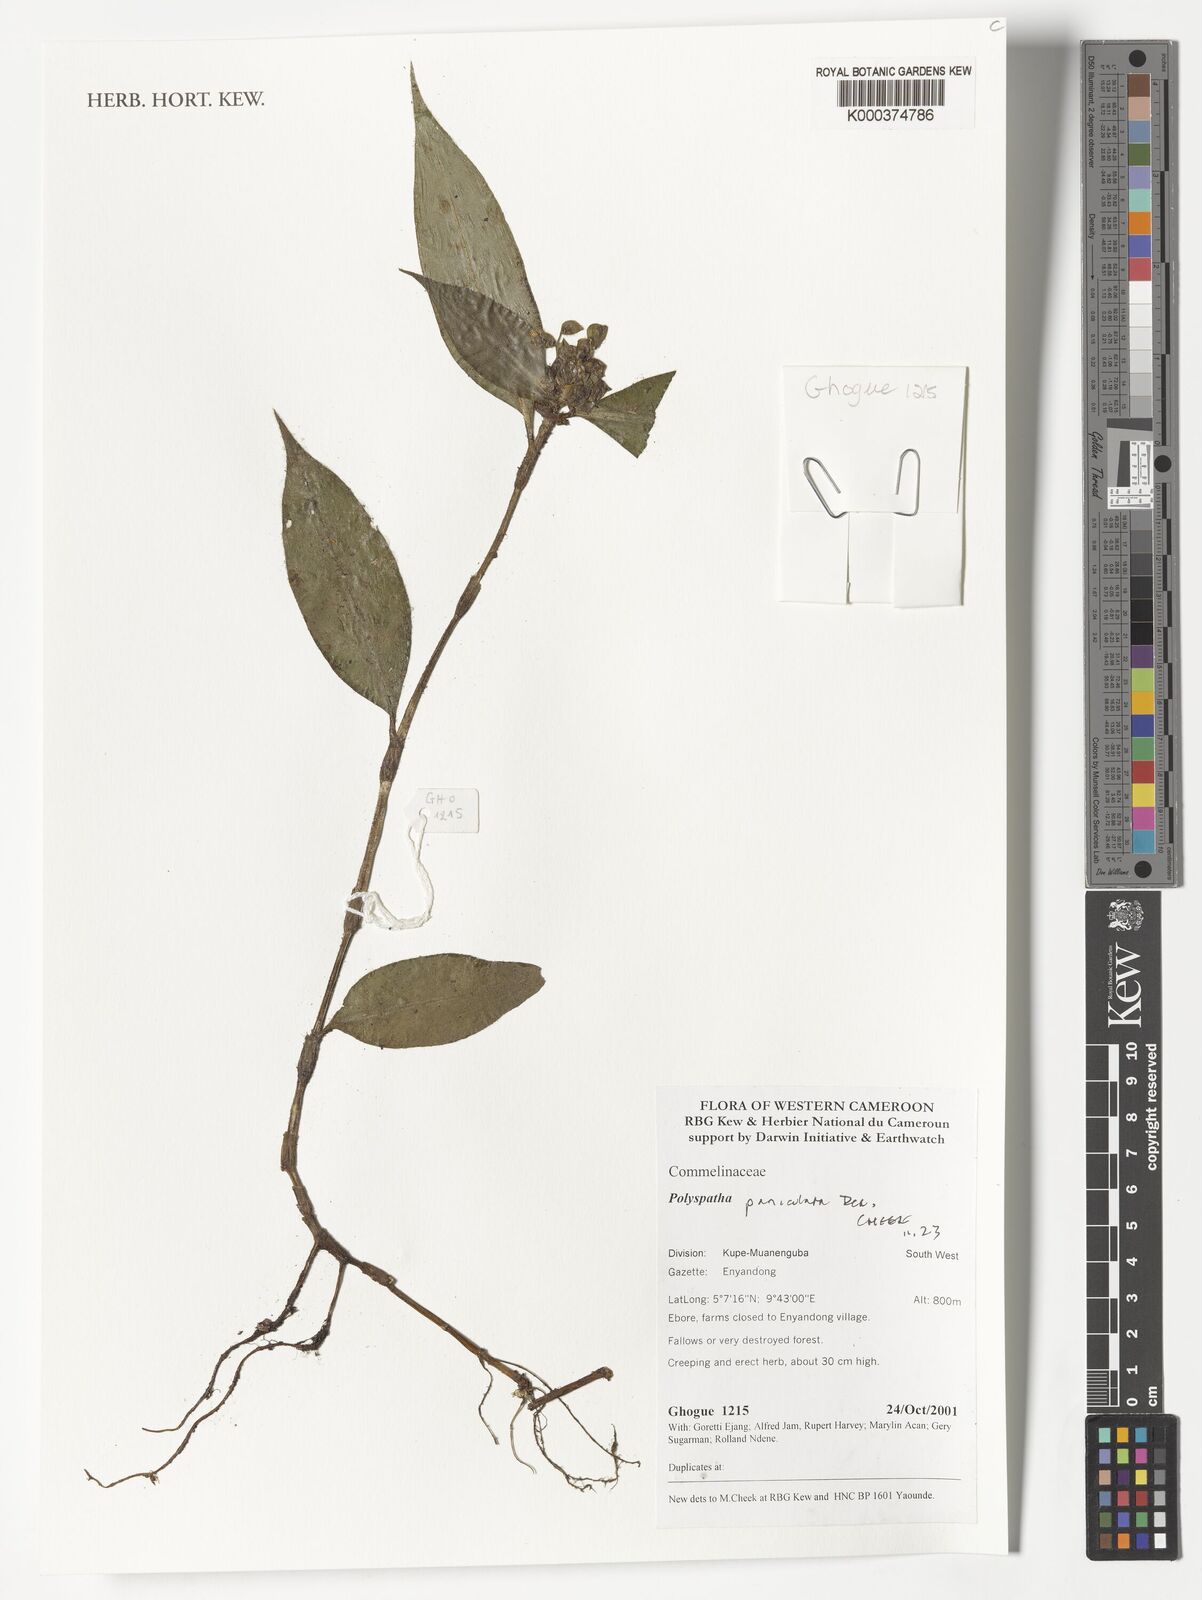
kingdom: Plantae
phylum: Tracheophyta
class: Liliopsida
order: Commelinales
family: Commelinaceae
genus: Polyspatha
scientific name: Polyspatha paniculata
